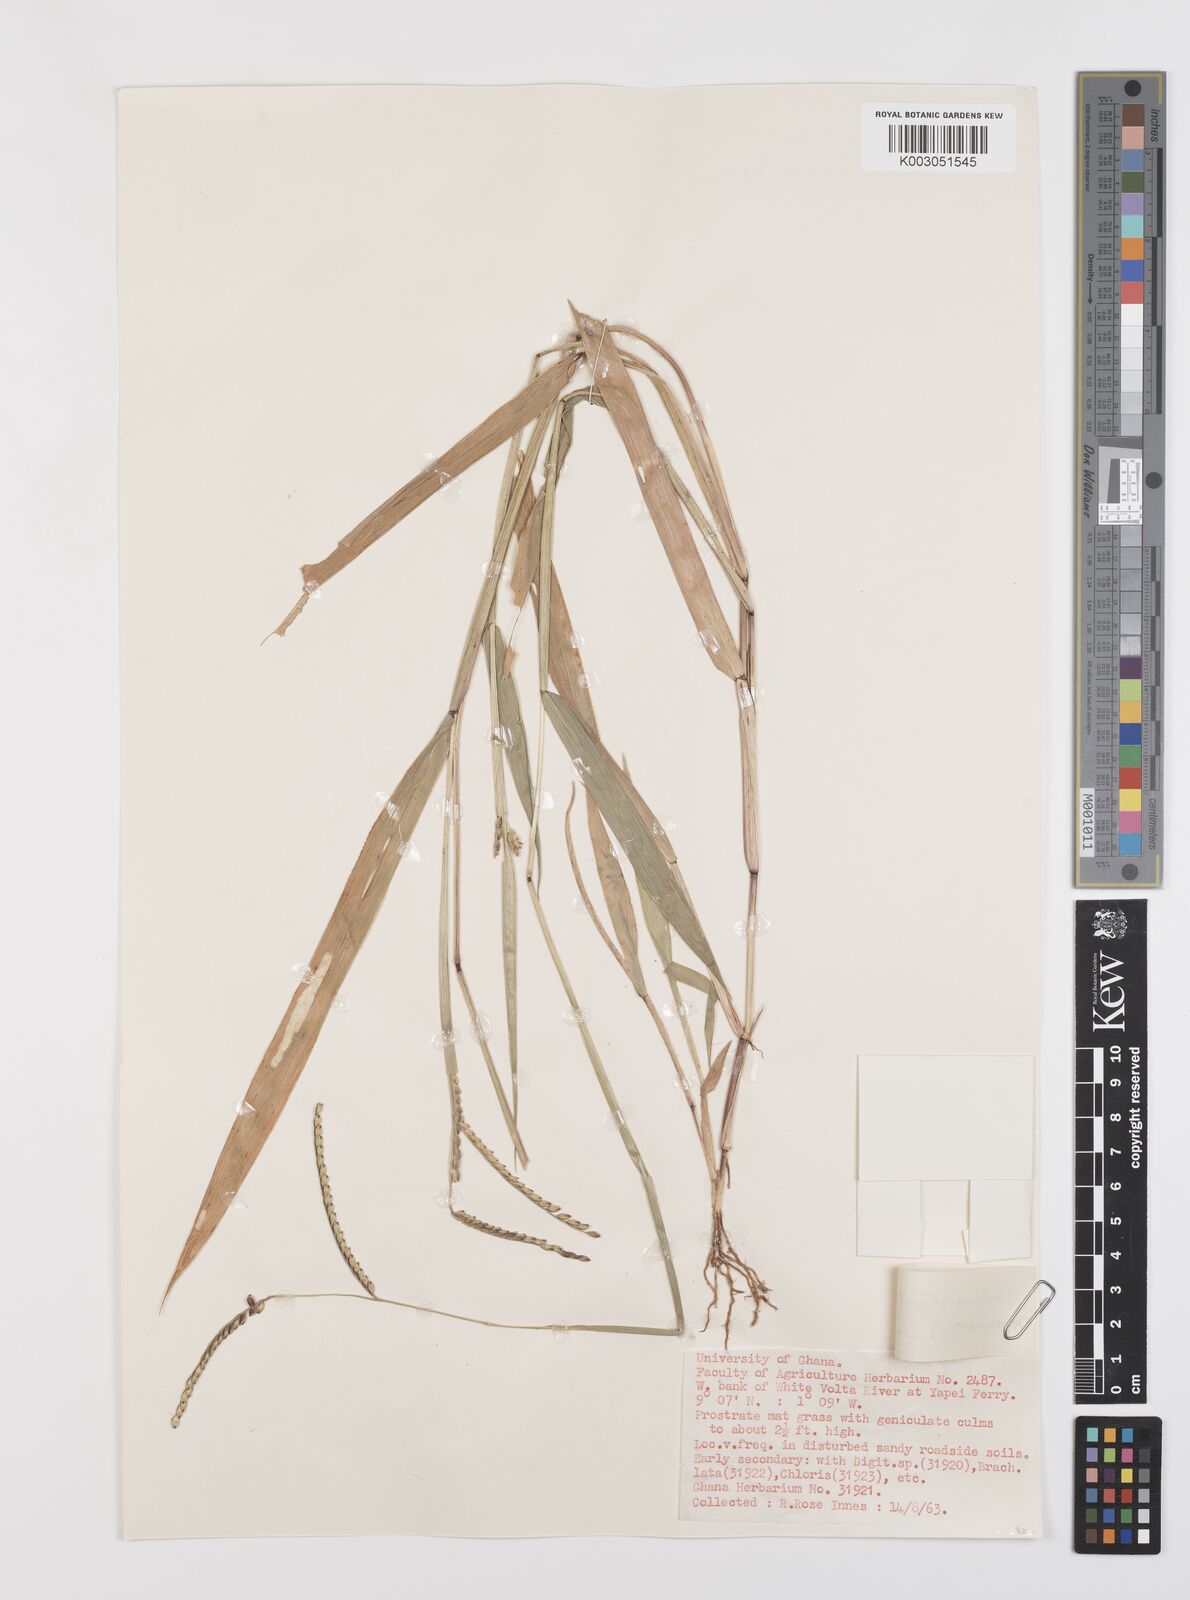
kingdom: Plantae
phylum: Tracheophyta
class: Liliopsida
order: Poales
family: Poaceae
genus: Urochloa
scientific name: Urochloa stigmatisata
